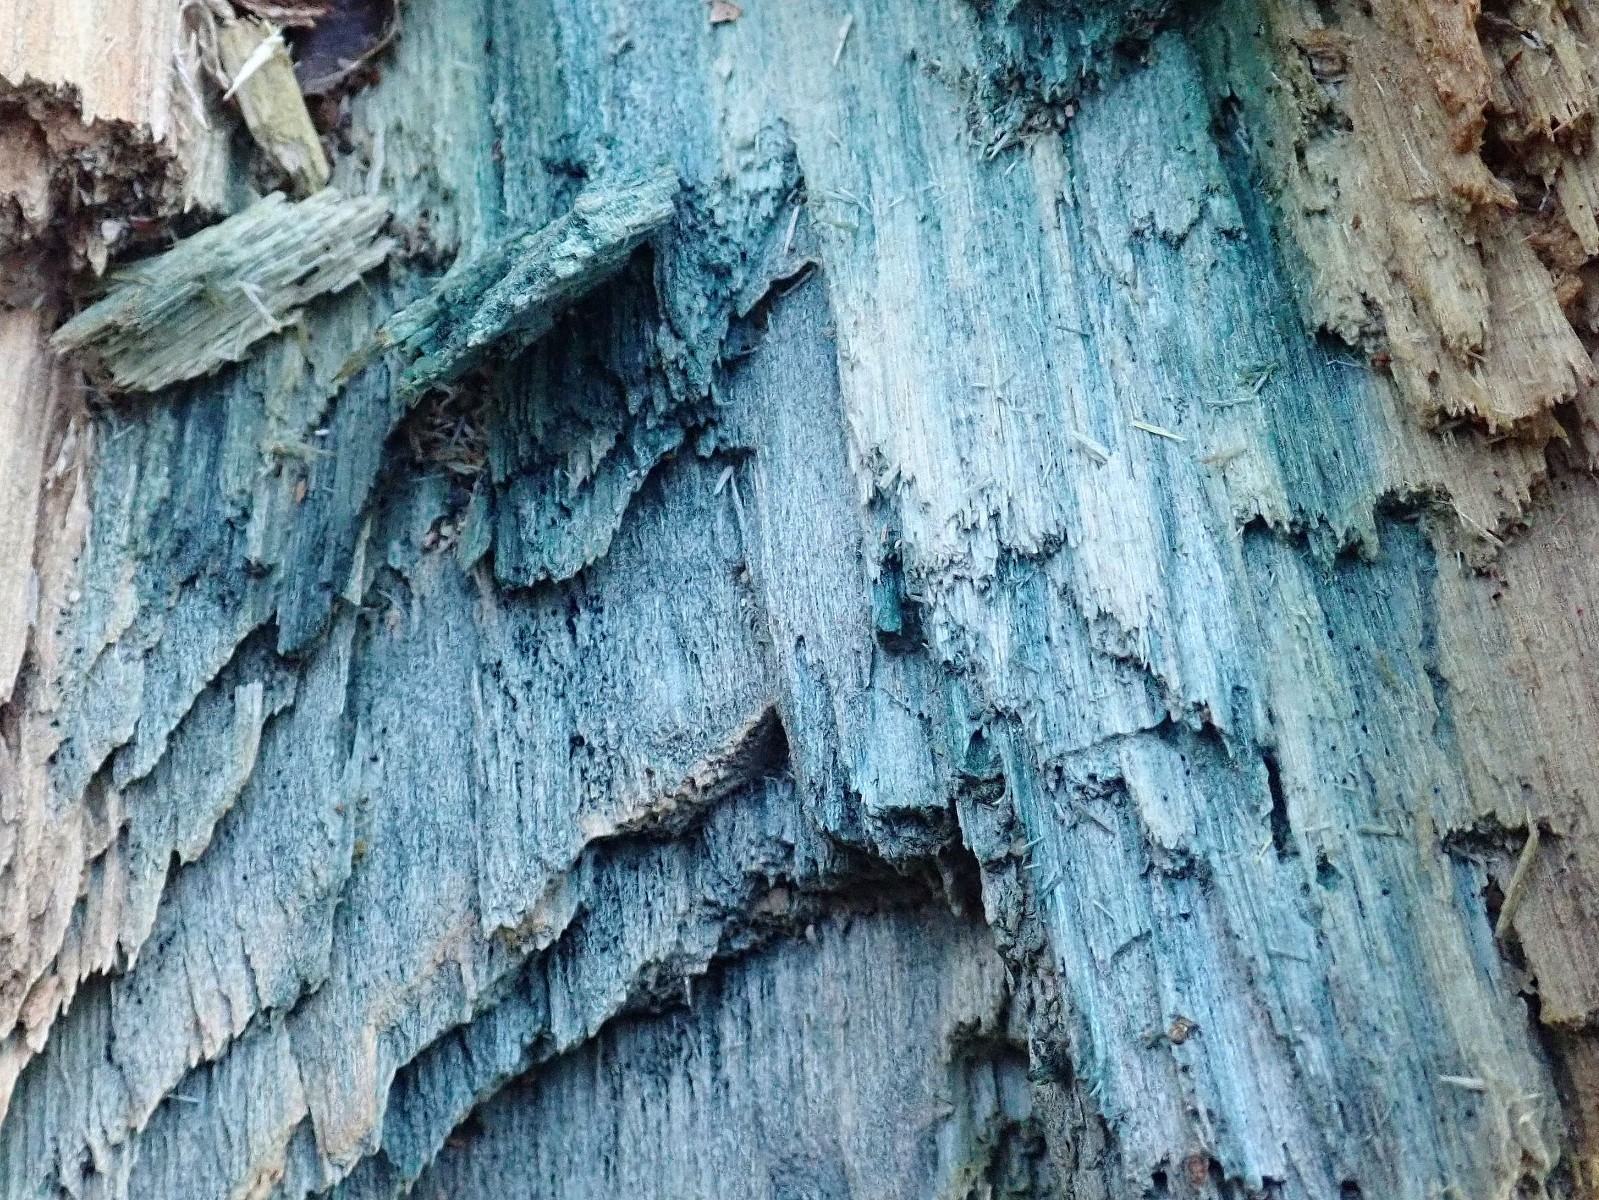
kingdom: Fungi
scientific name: Fungi
